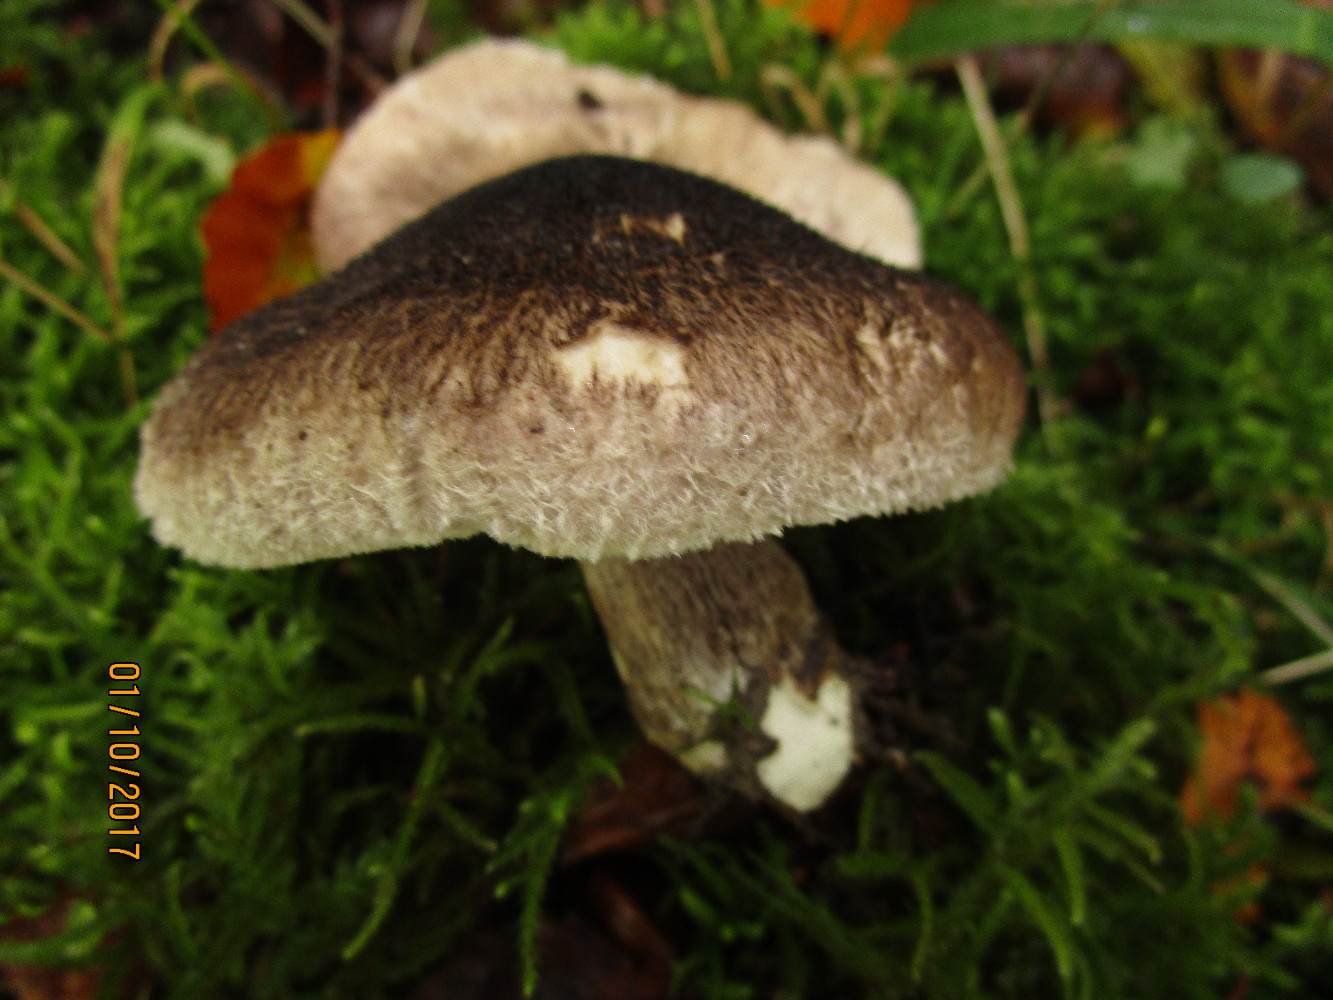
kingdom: Fungi
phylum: Basidiomycota
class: Agaricomycetes
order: Agaricales
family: Tricholomataceae
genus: Tricholoma
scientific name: Tricholoma atrosquamosum
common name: sortskællet ridderhat
